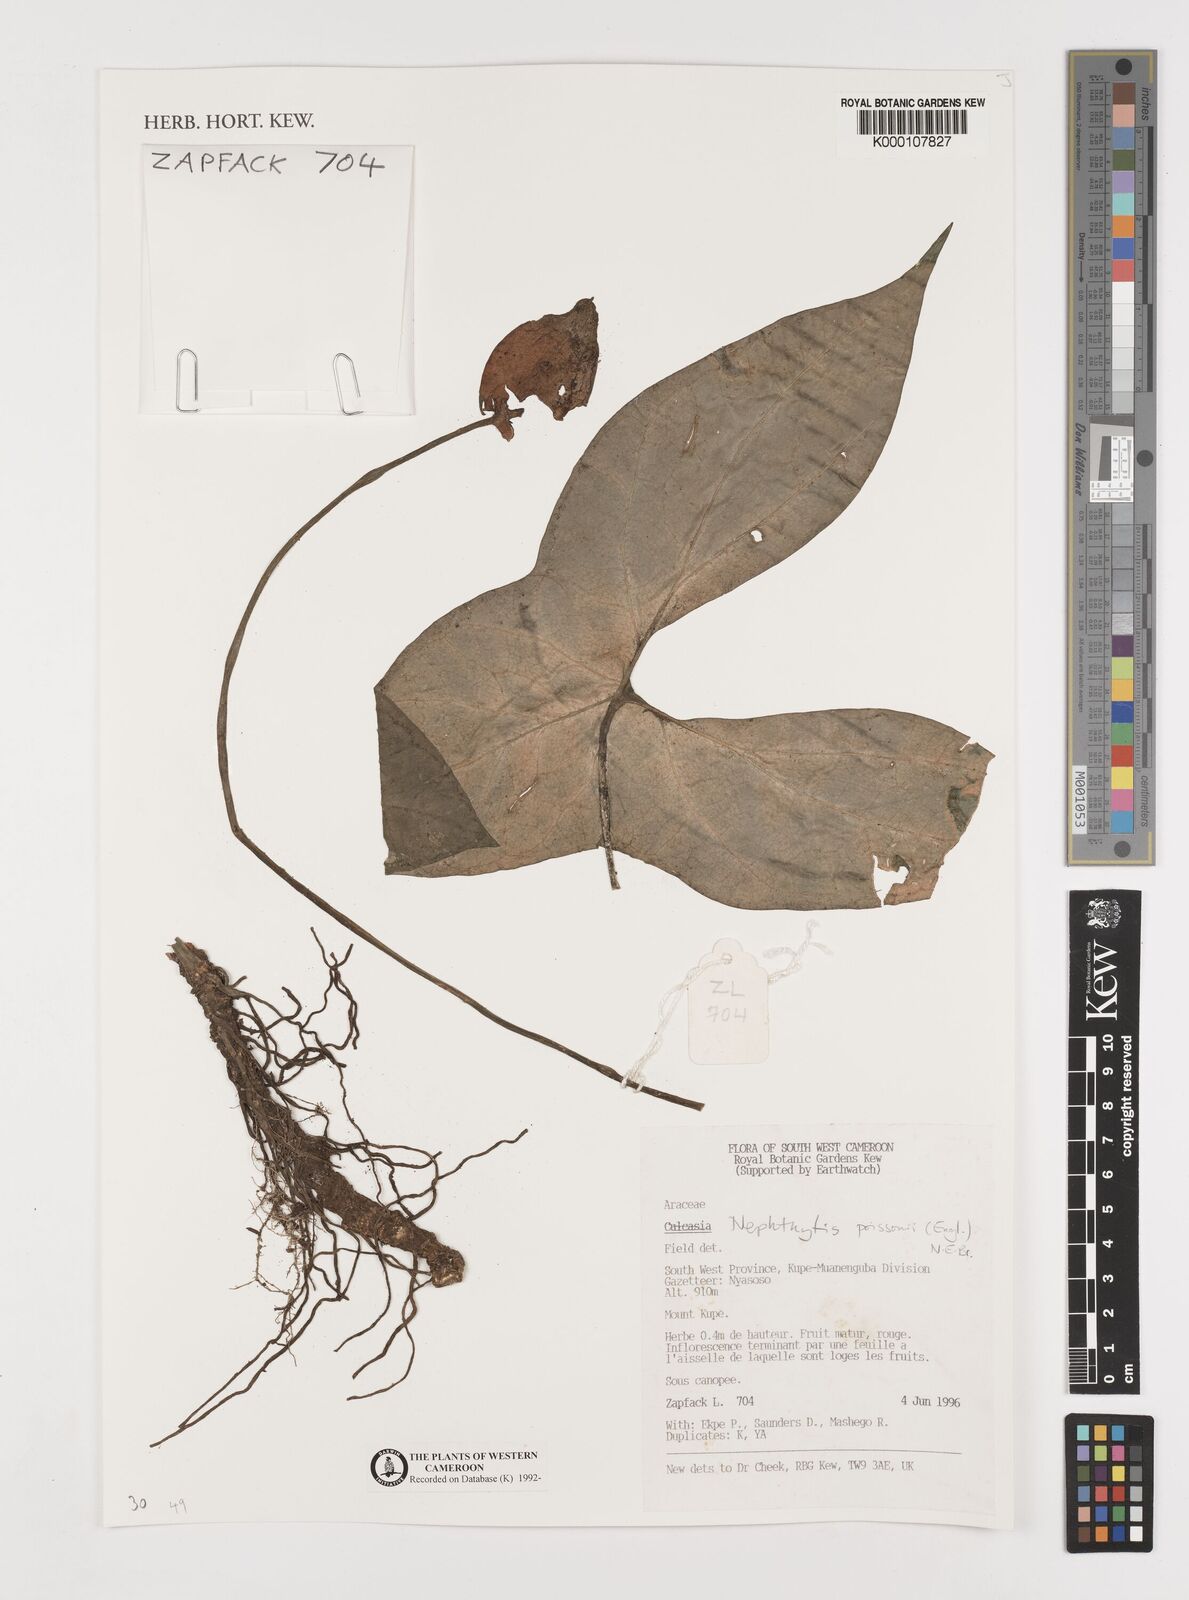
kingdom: Plantae
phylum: Tracheophyta
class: Liliopsida
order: Alismatales
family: Araceae
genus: Nephthytis
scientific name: Nephthytis poissonii
